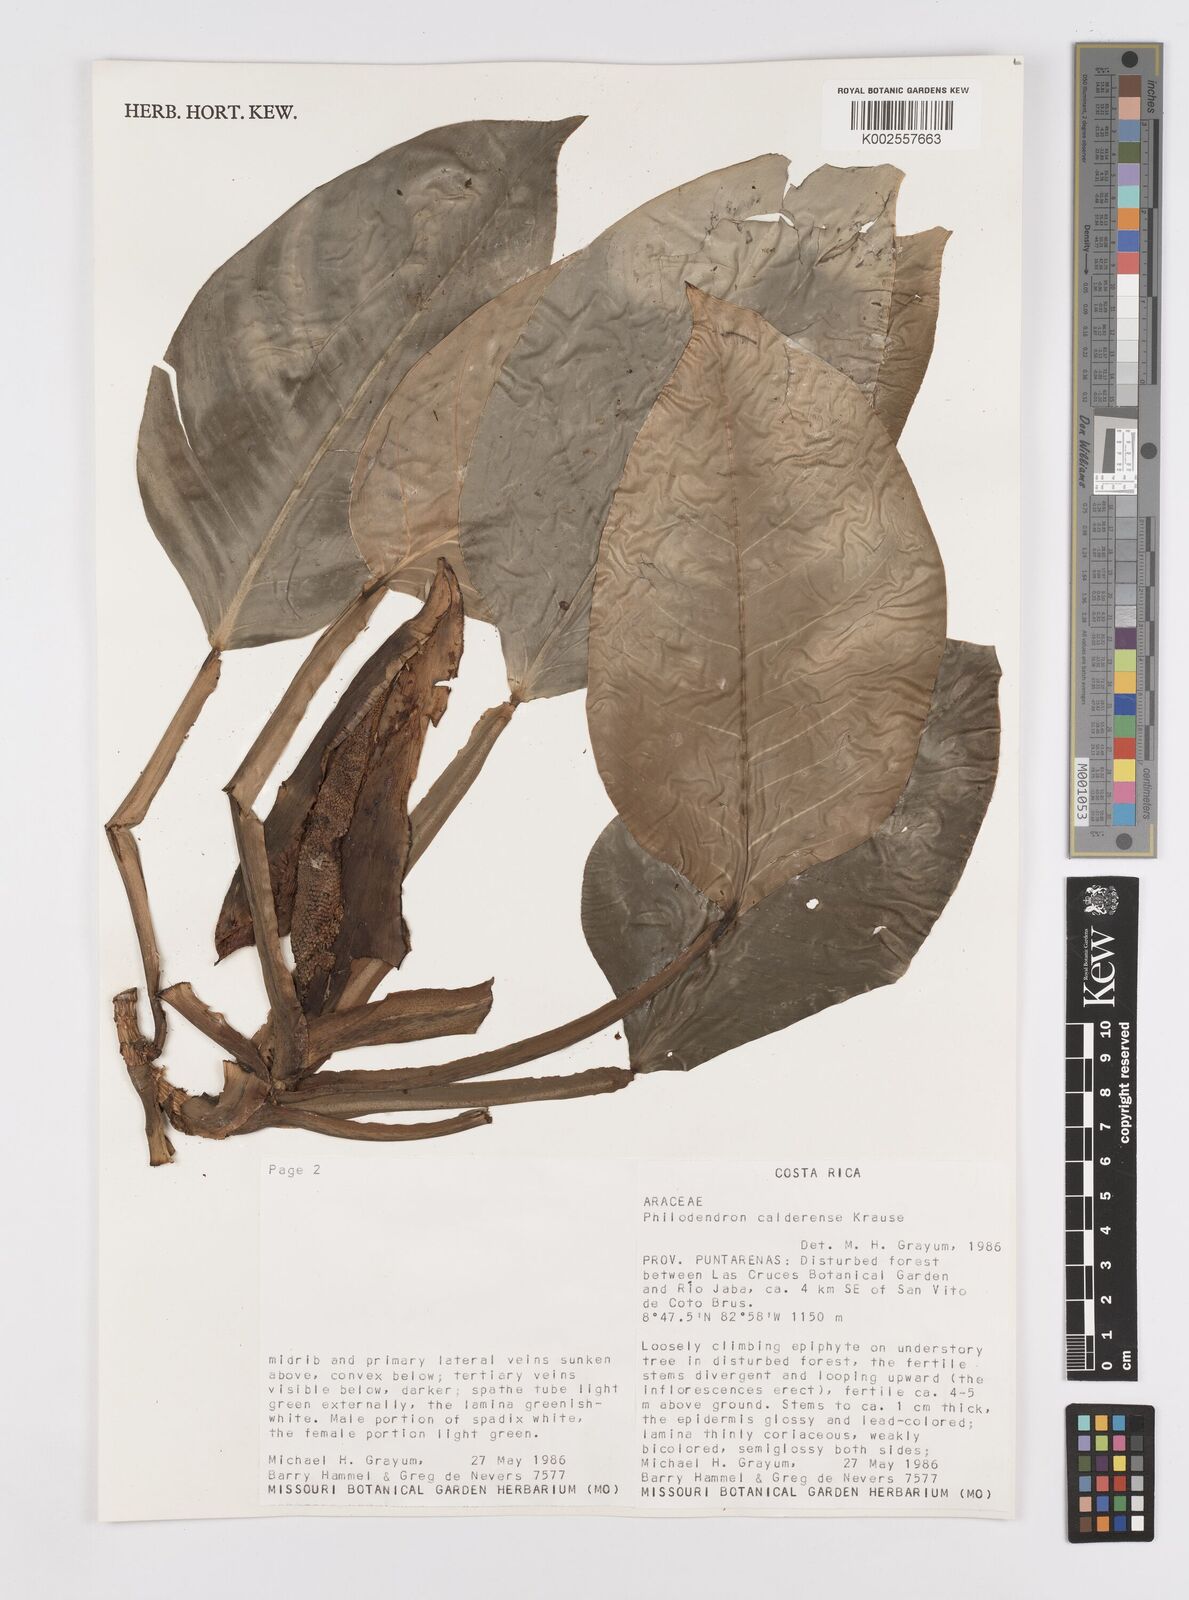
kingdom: Plantae
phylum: Tracheophyta
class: Liliopsida
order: Alismatales
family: Araceae
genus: Philodendron
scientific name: Philodendron aurantiifolium
